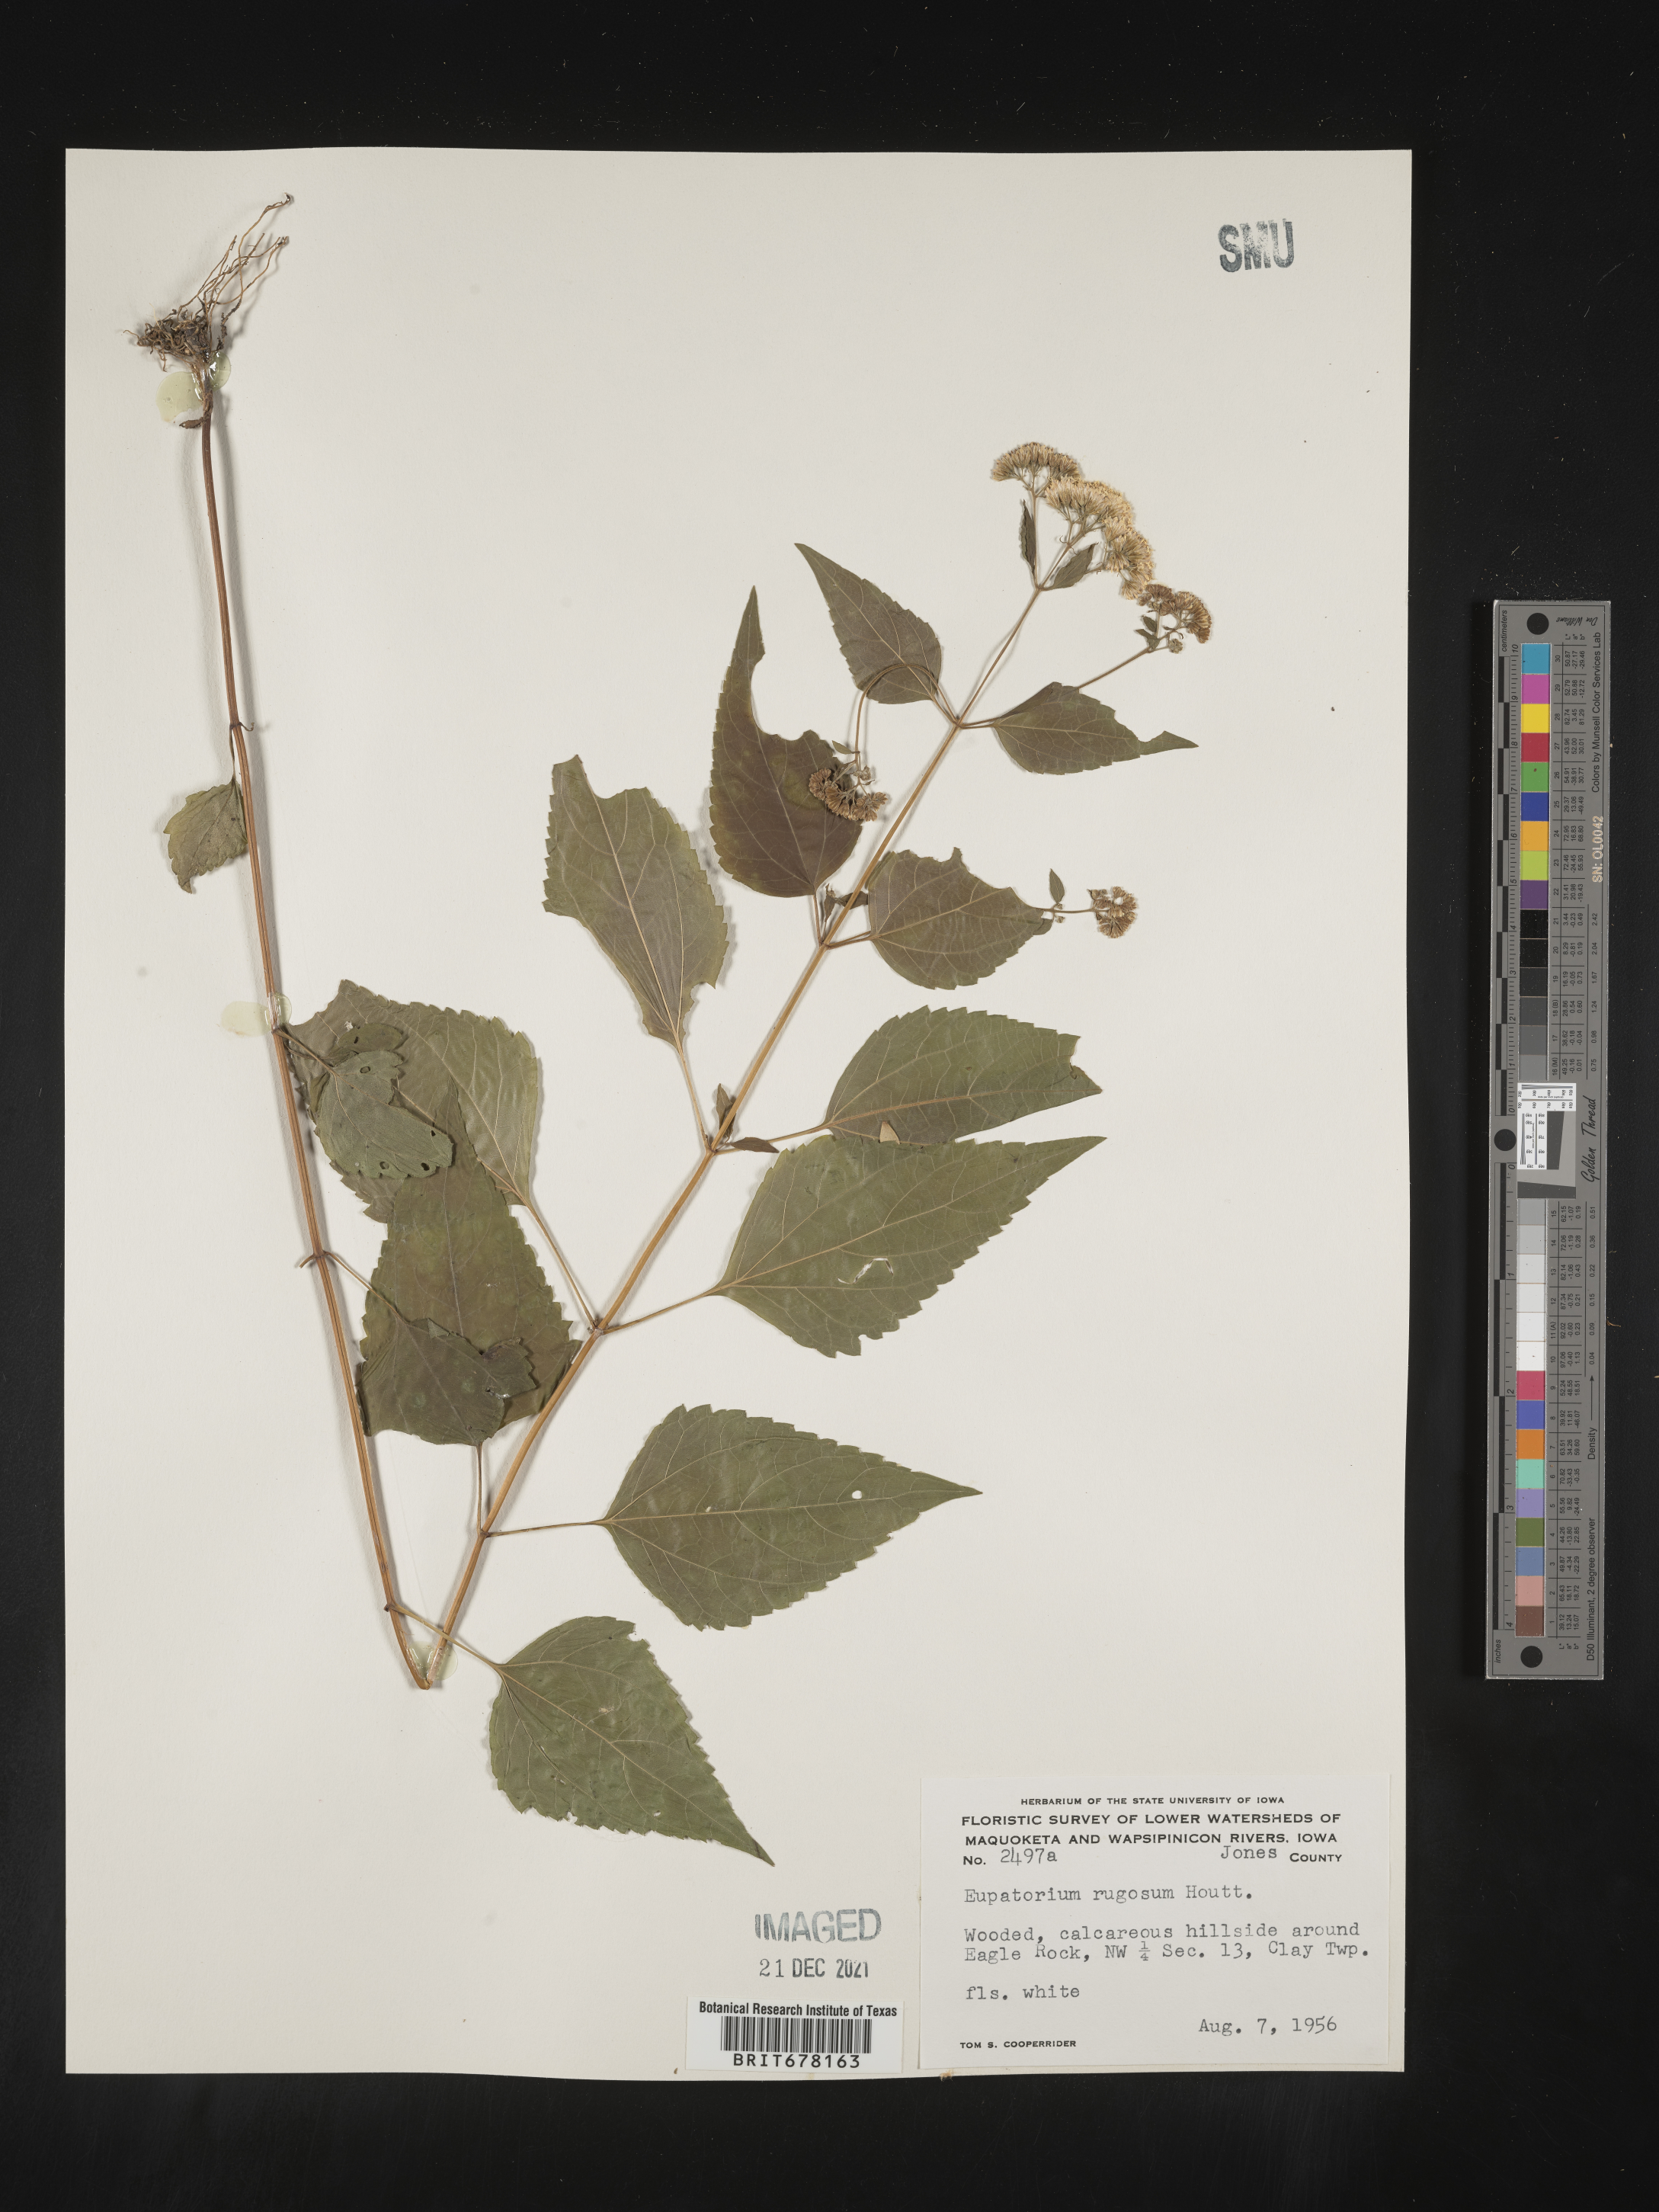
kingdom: Plantae
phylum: Tracheophyta
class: Magnoliopsida
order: Asterales
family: Asteraceae
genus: Eupatorium
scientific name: Eupatorium
